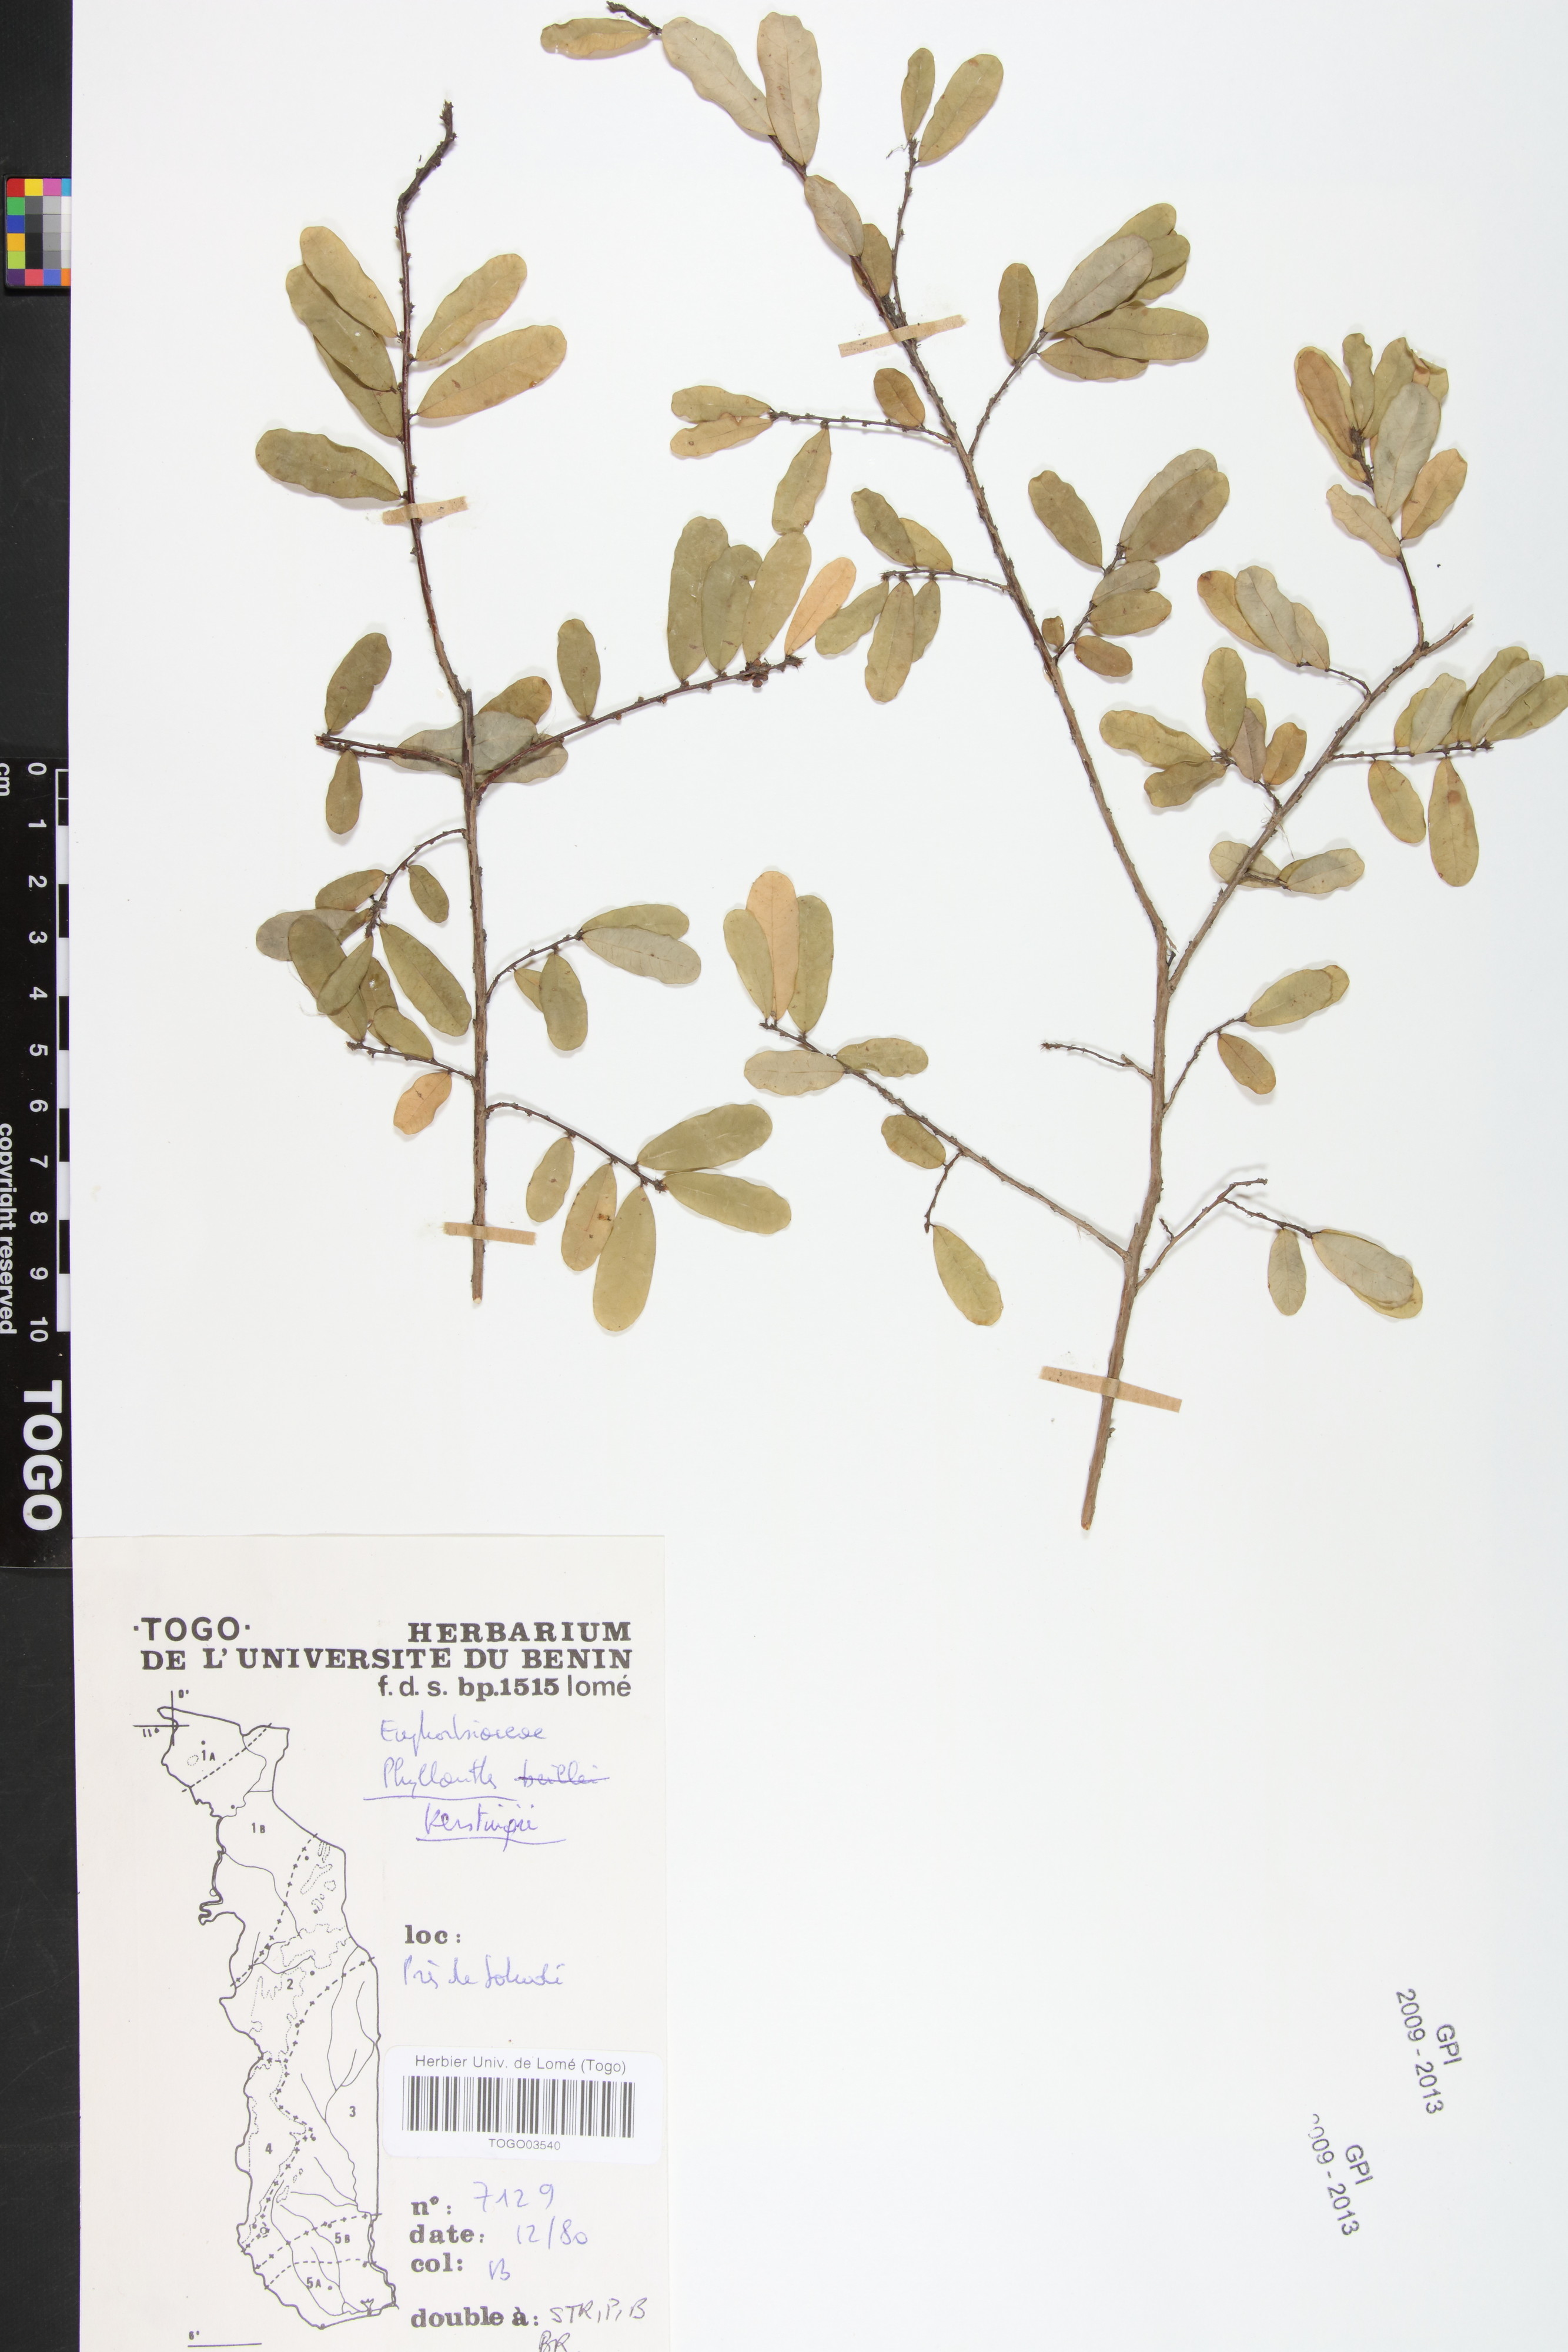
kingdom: Plantae
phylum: Tracheophyta
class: Magnoliopsida
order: Malpighiales
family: Phyllanthaceae
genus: Phyllanthus
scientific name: Phyllanthus kerstingii
